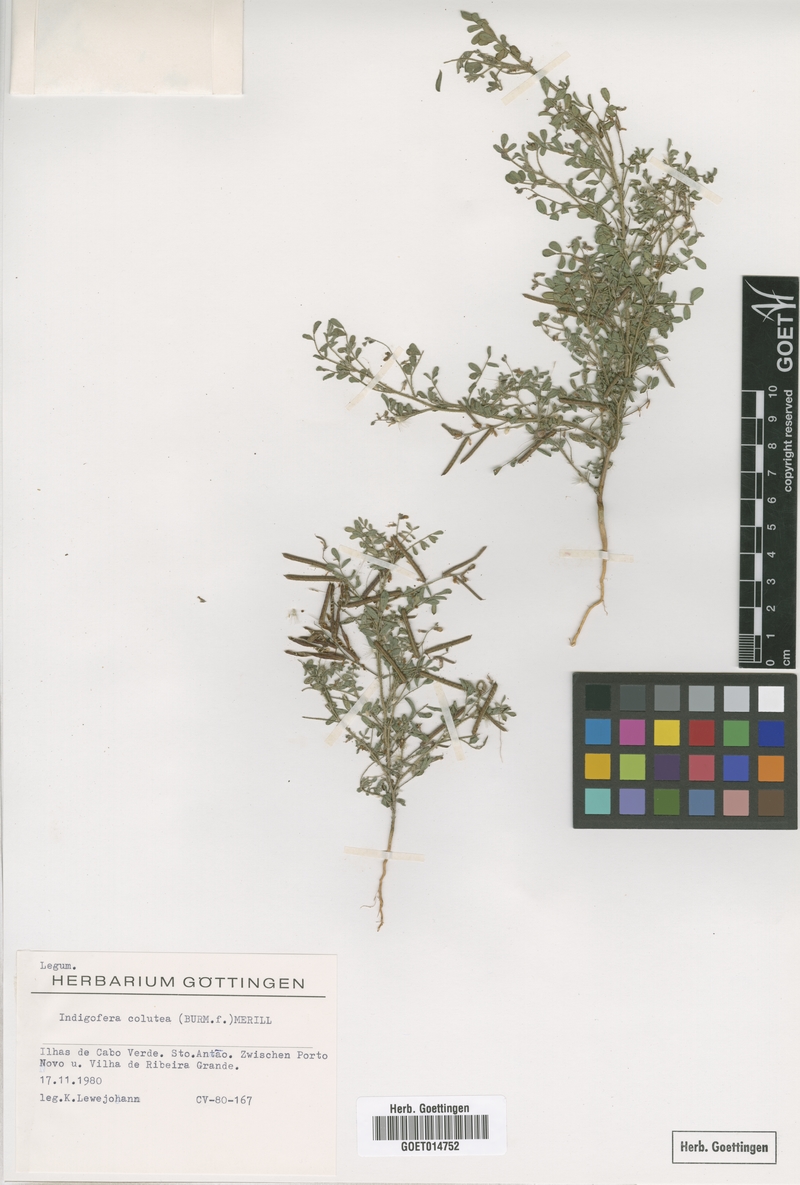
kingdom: Plantae
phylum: Tracheophyta
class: Magnoliopsida
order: Fabales
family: Fabaceae
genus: Indigofera
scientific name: Indigofera colutea
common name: Rusty indigo
